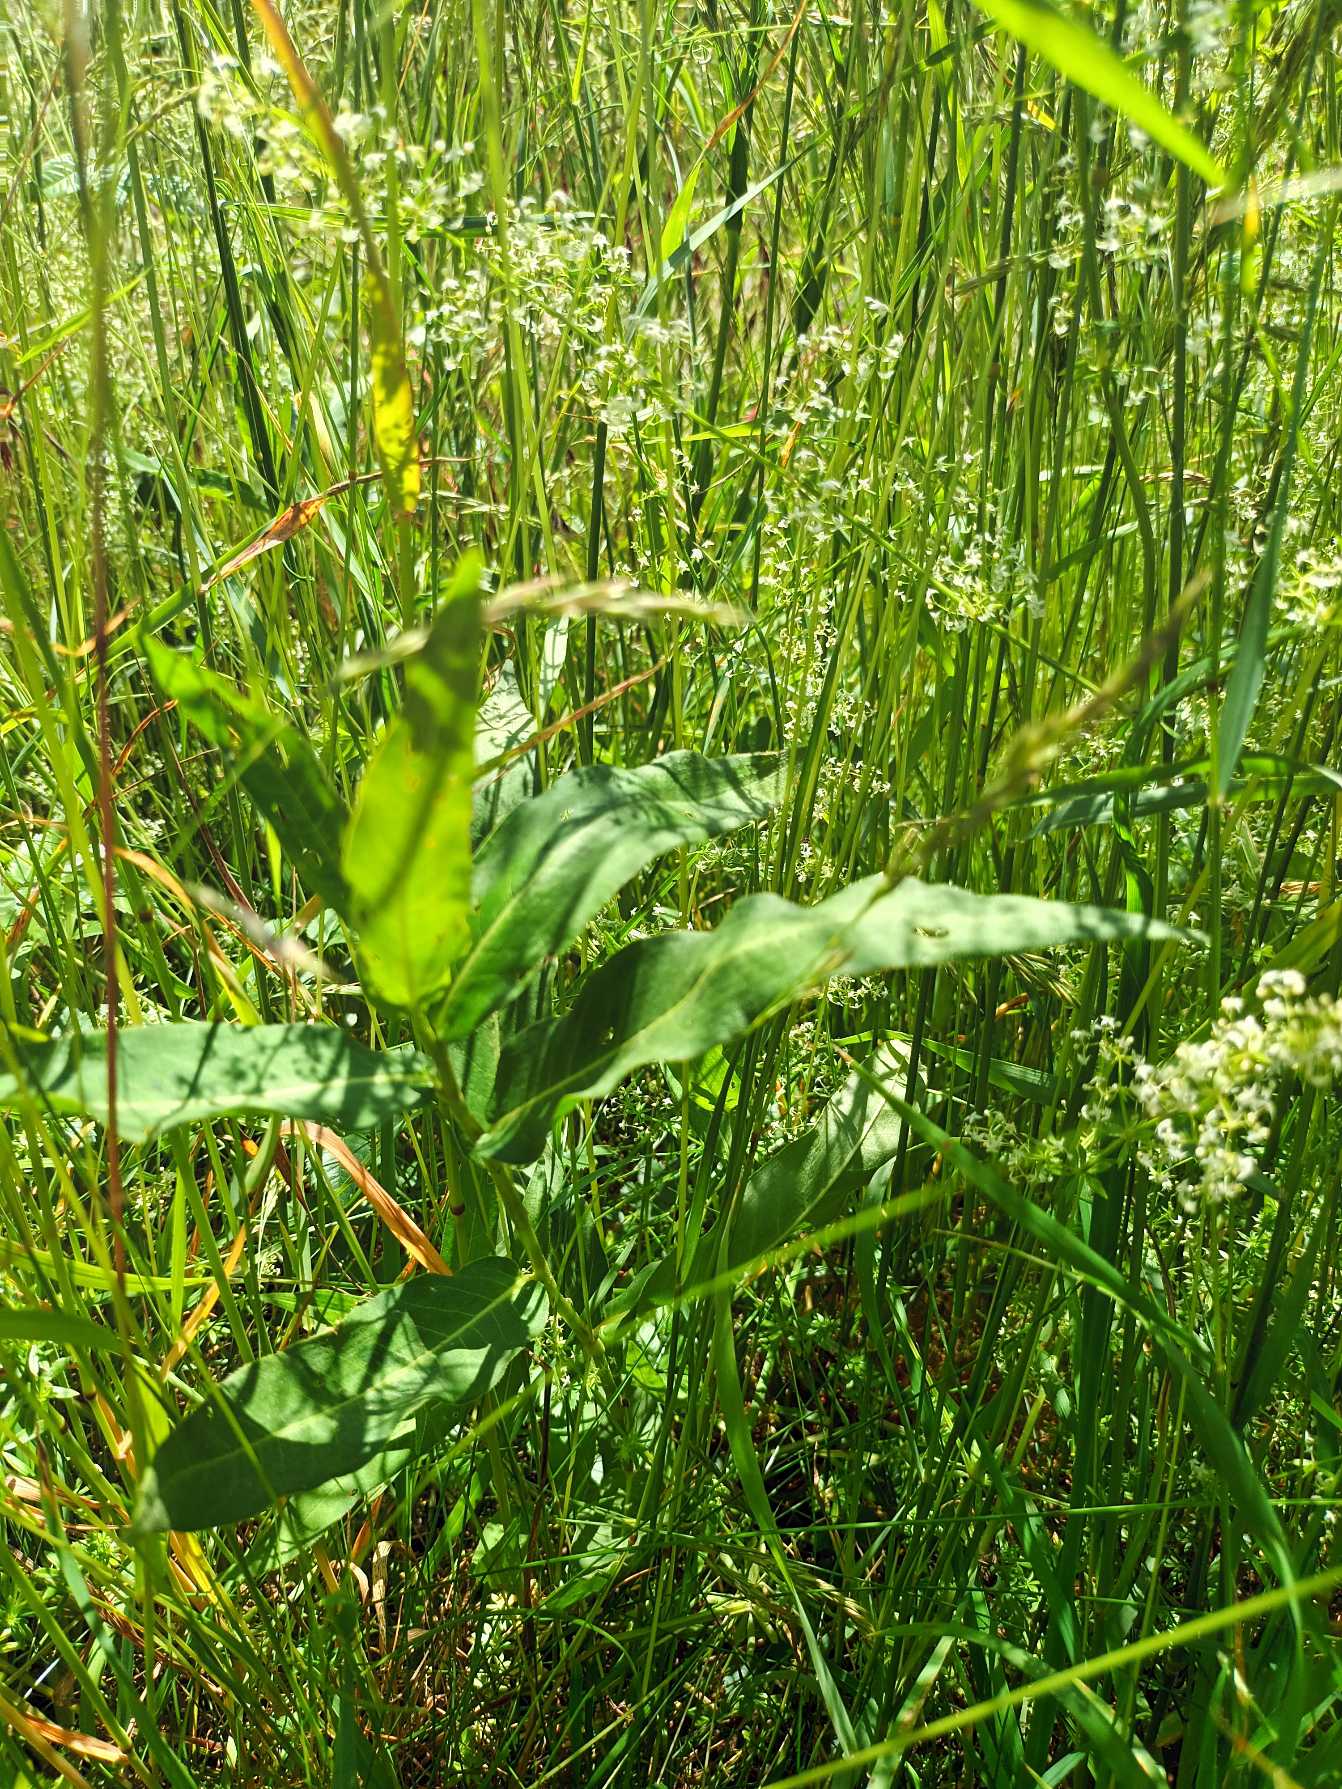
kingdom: Plantae
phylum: Tracheophyta
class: Magnoliopsida
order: Caryophyllales
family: Polygonaceae
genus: Persicaria
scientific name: Persicaria amphibia
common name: Vand-pileurt
